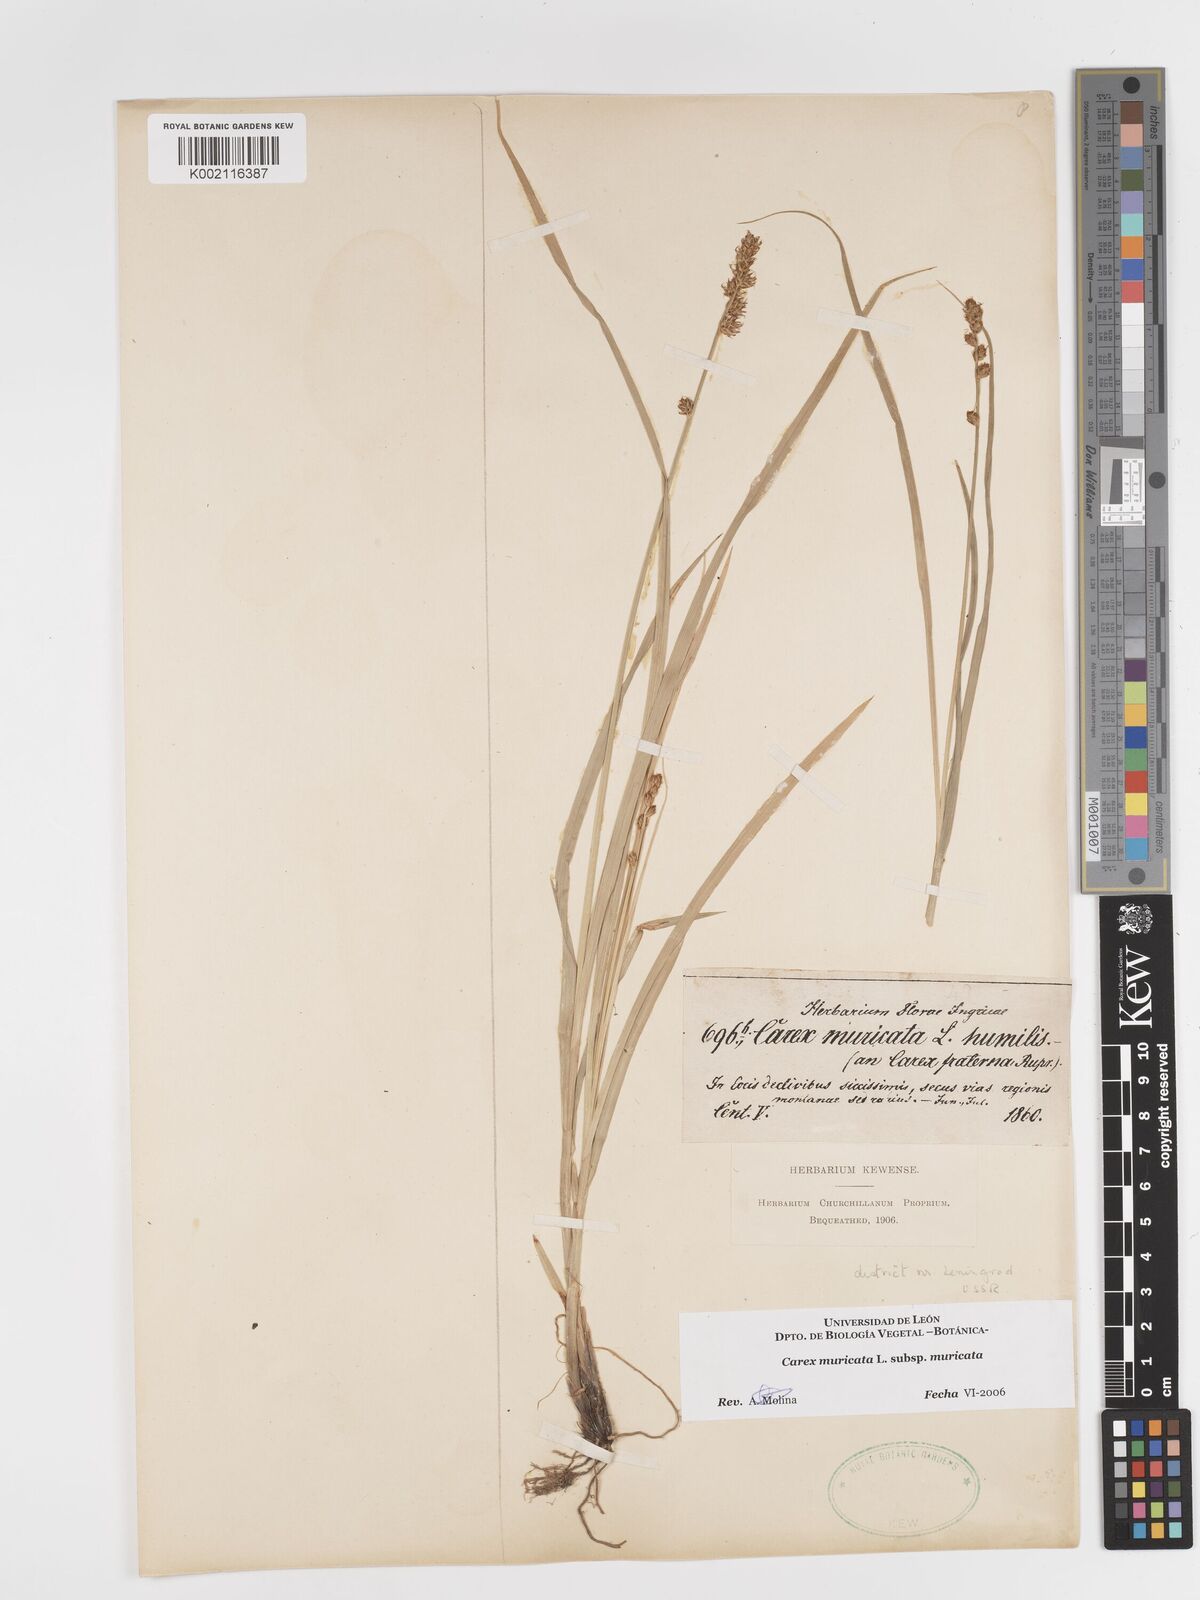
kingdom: Plantae
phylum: Tracheophyta
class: Liliopsida
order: Poales
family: Cyperaceae
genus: Carex
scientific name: Carex muricata
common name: Rough sedge
